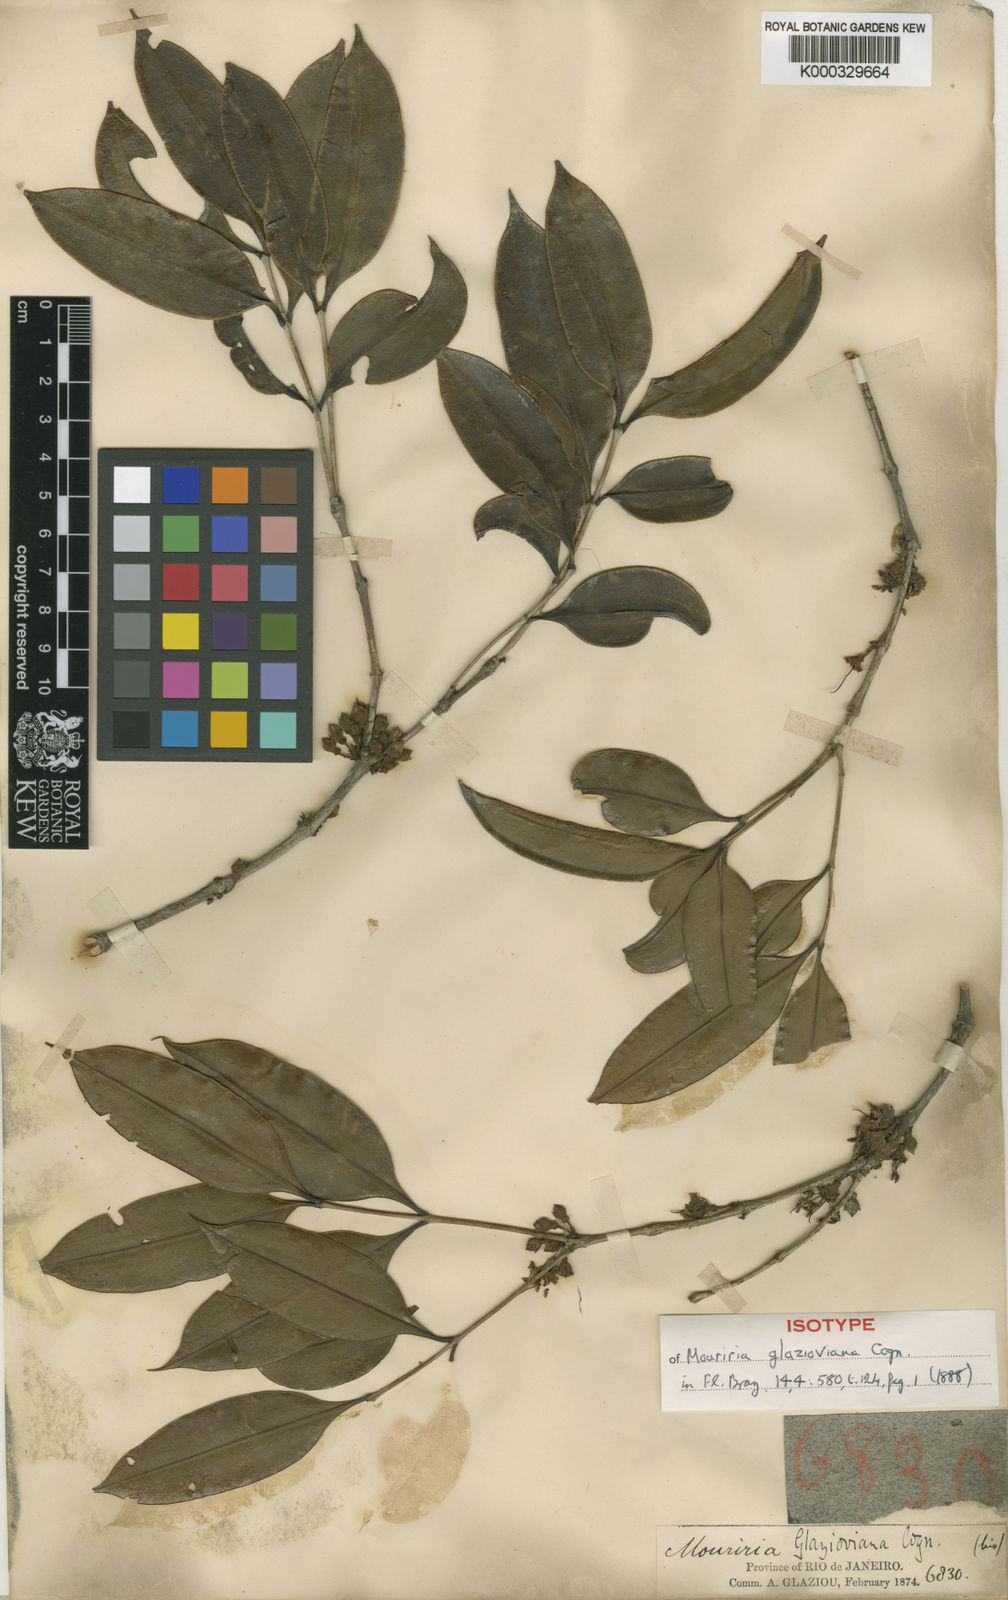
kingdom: Plantae
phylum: Tracheophyta
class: Magnoliopsida
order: Myrtales
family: Melastomataceae
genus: Mouriri
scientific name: Mouriri glazioviana
